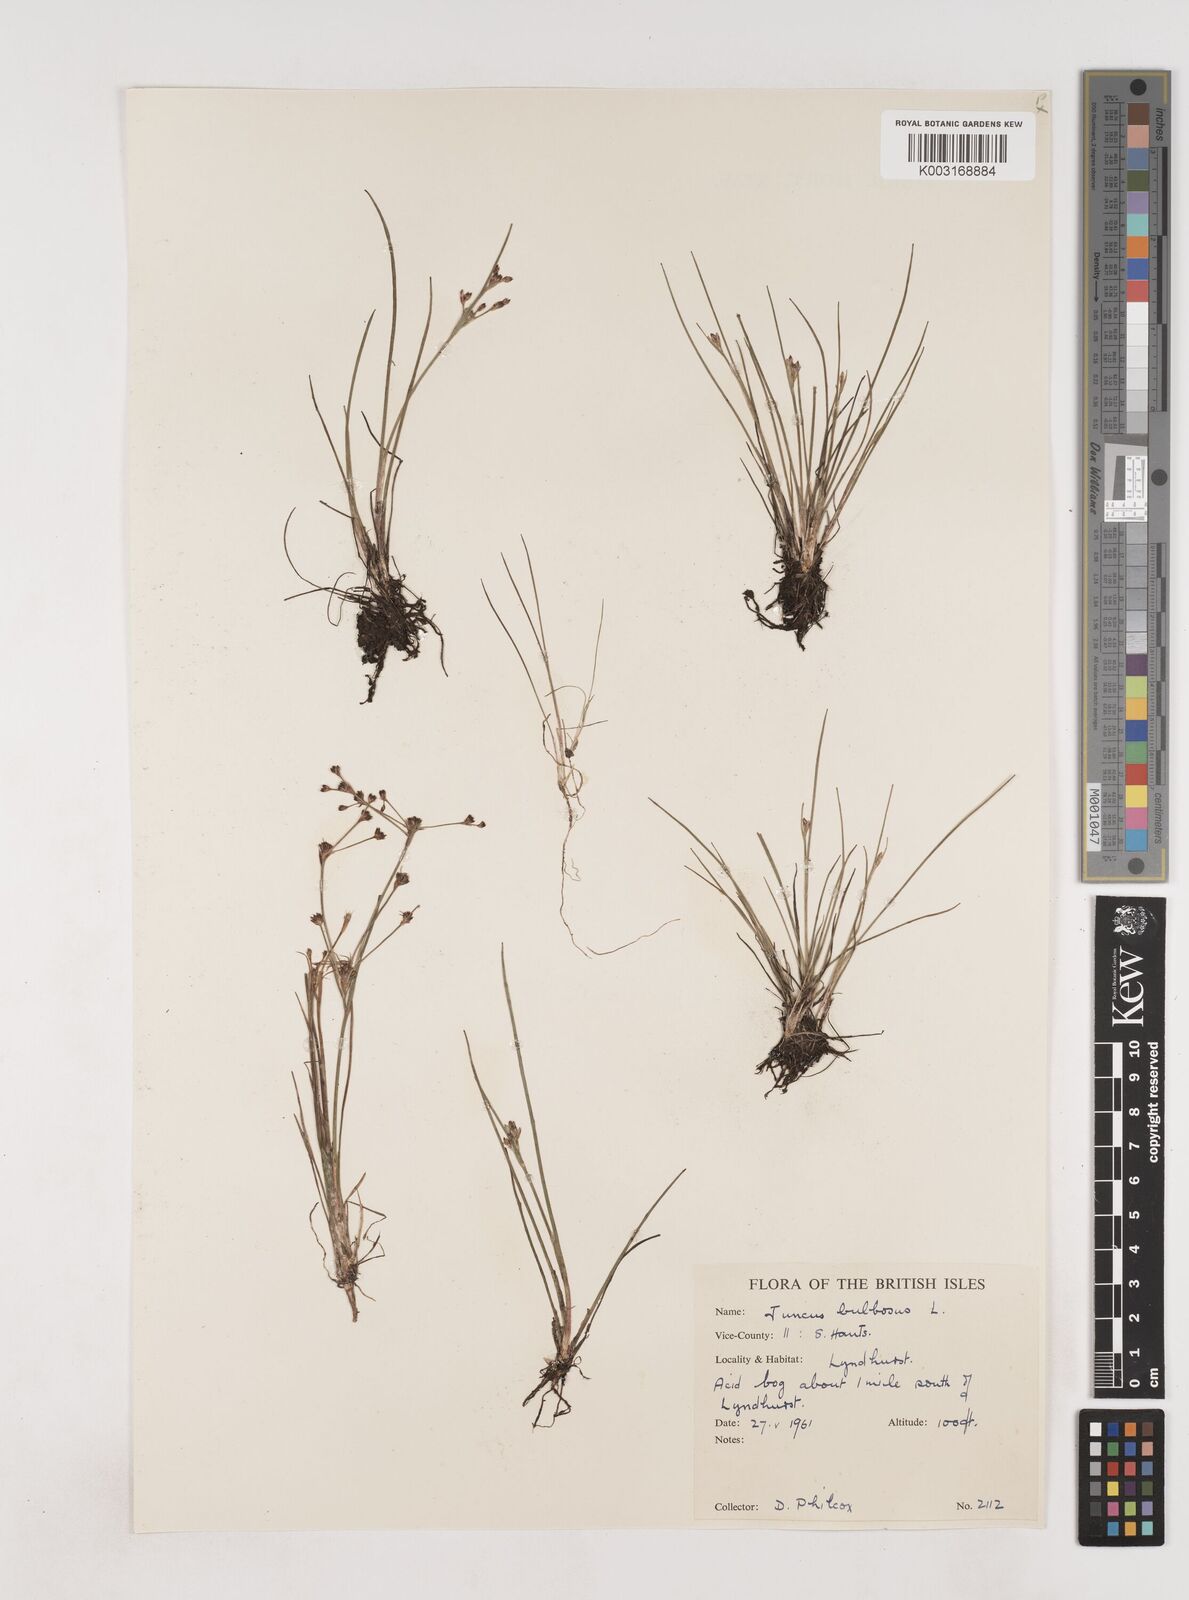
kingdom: Plantae
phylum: Tracheophyta
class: Liliopsida
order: Poales
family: Juncaceae
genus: Juncus
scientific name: Juncus bulbosus
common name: Bulbous rush
